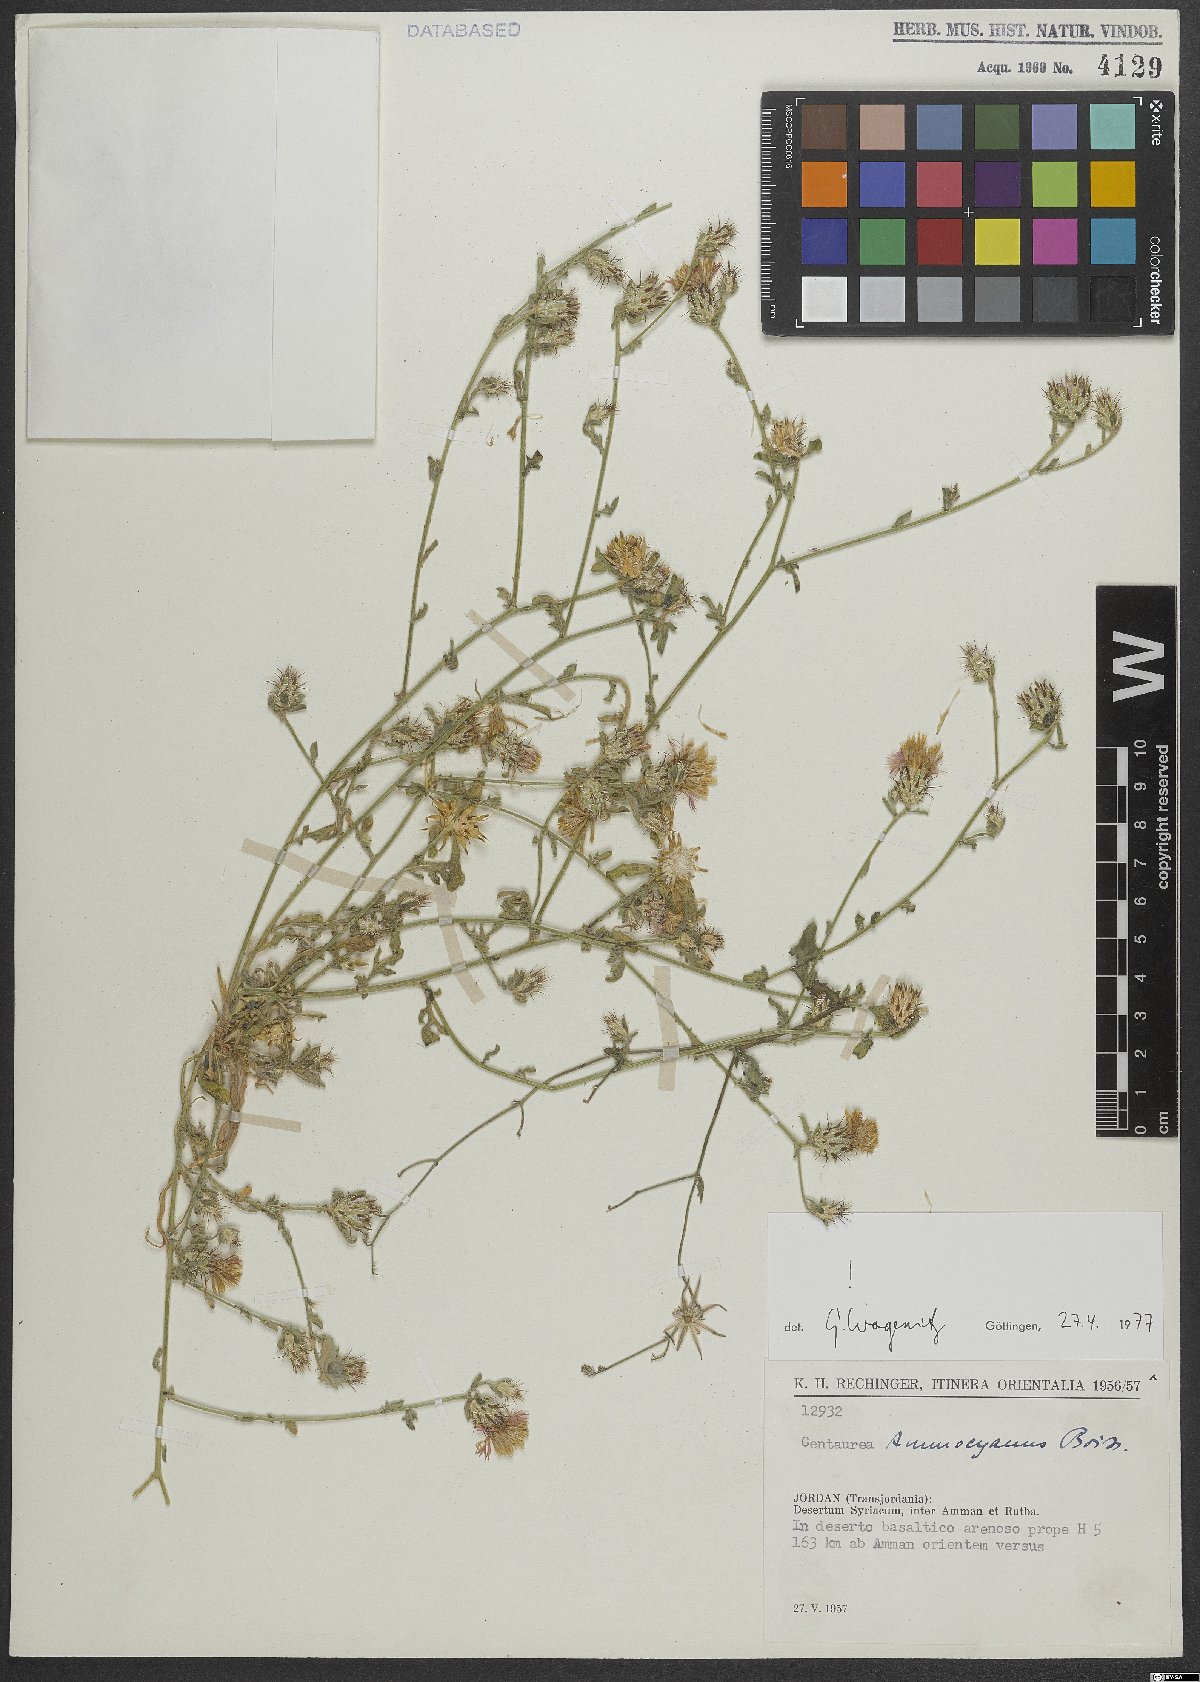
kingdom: Plantae
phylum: Tracheophyta
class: Magnoliopsida
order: Asterales
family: Asteraceae
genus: Centaurea
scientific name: Centaurea ammocyanus
